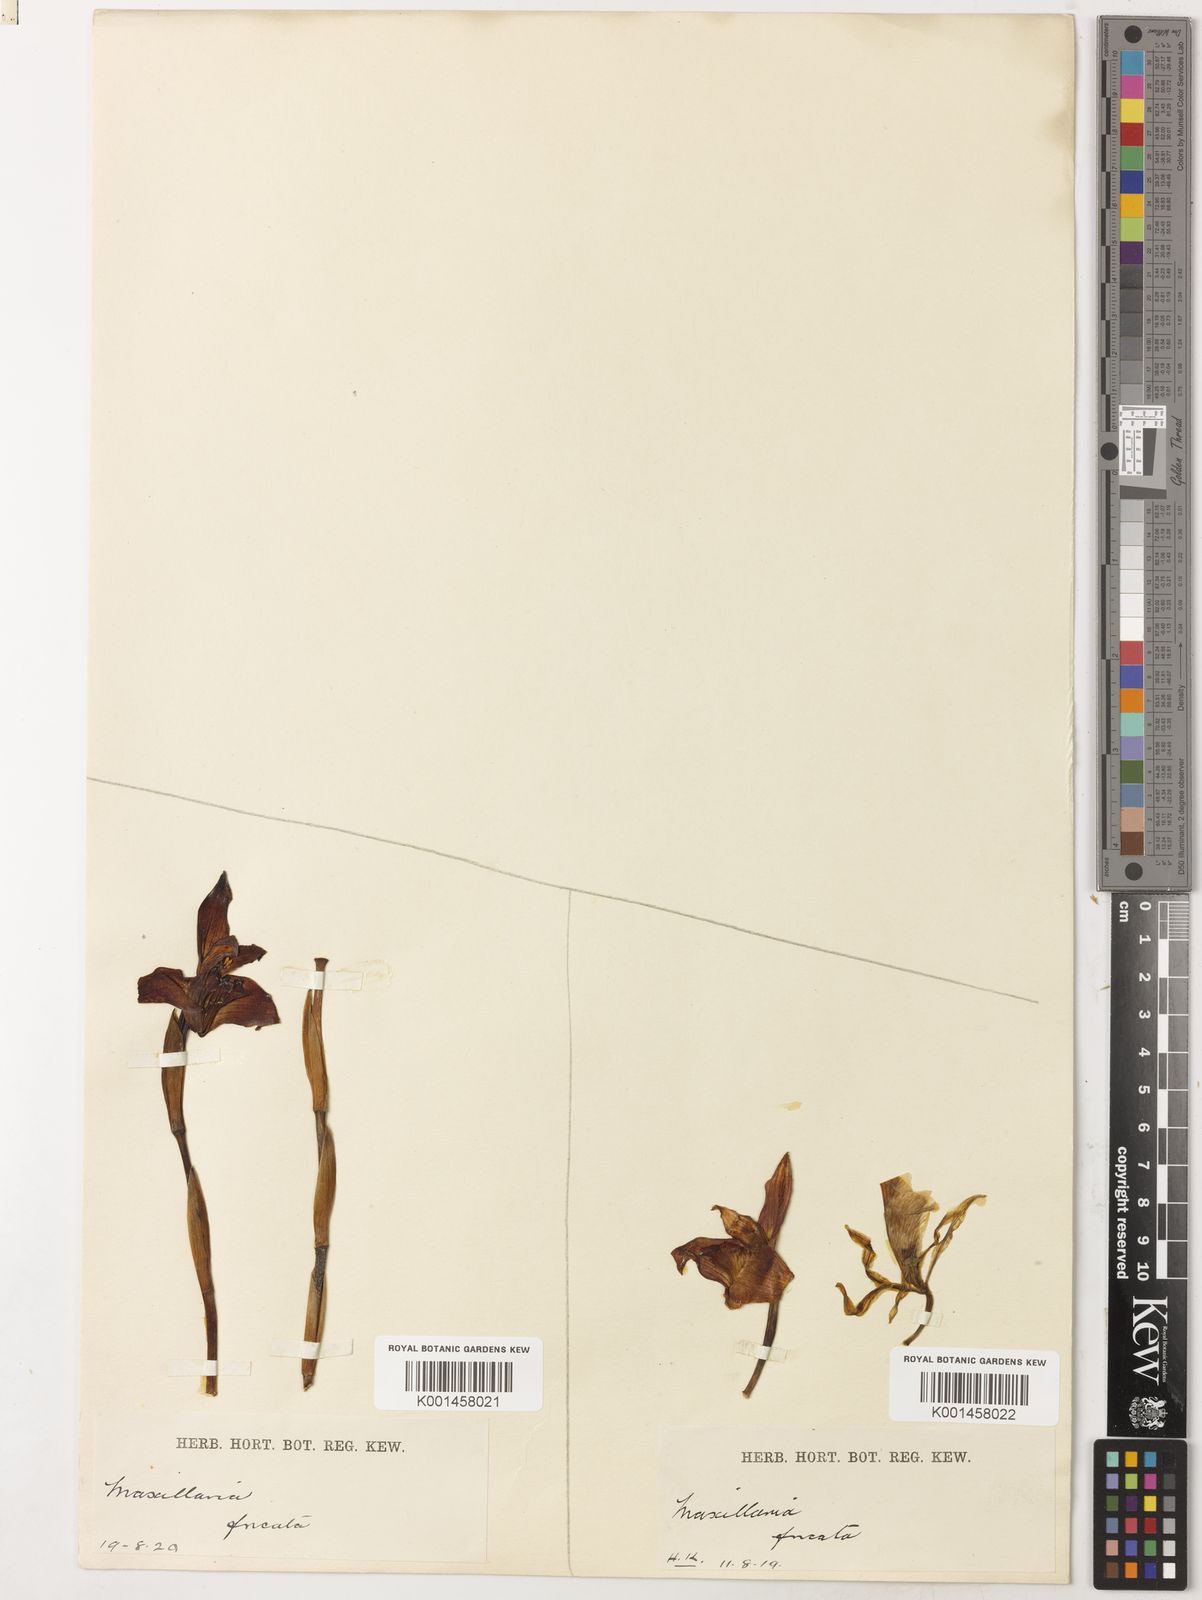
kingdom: Plantae
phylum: Tracheophyta
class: Liliopsida
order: Asparagales
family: Orchidaceae
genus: Maxillaria
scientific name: Maxillaria fucata
